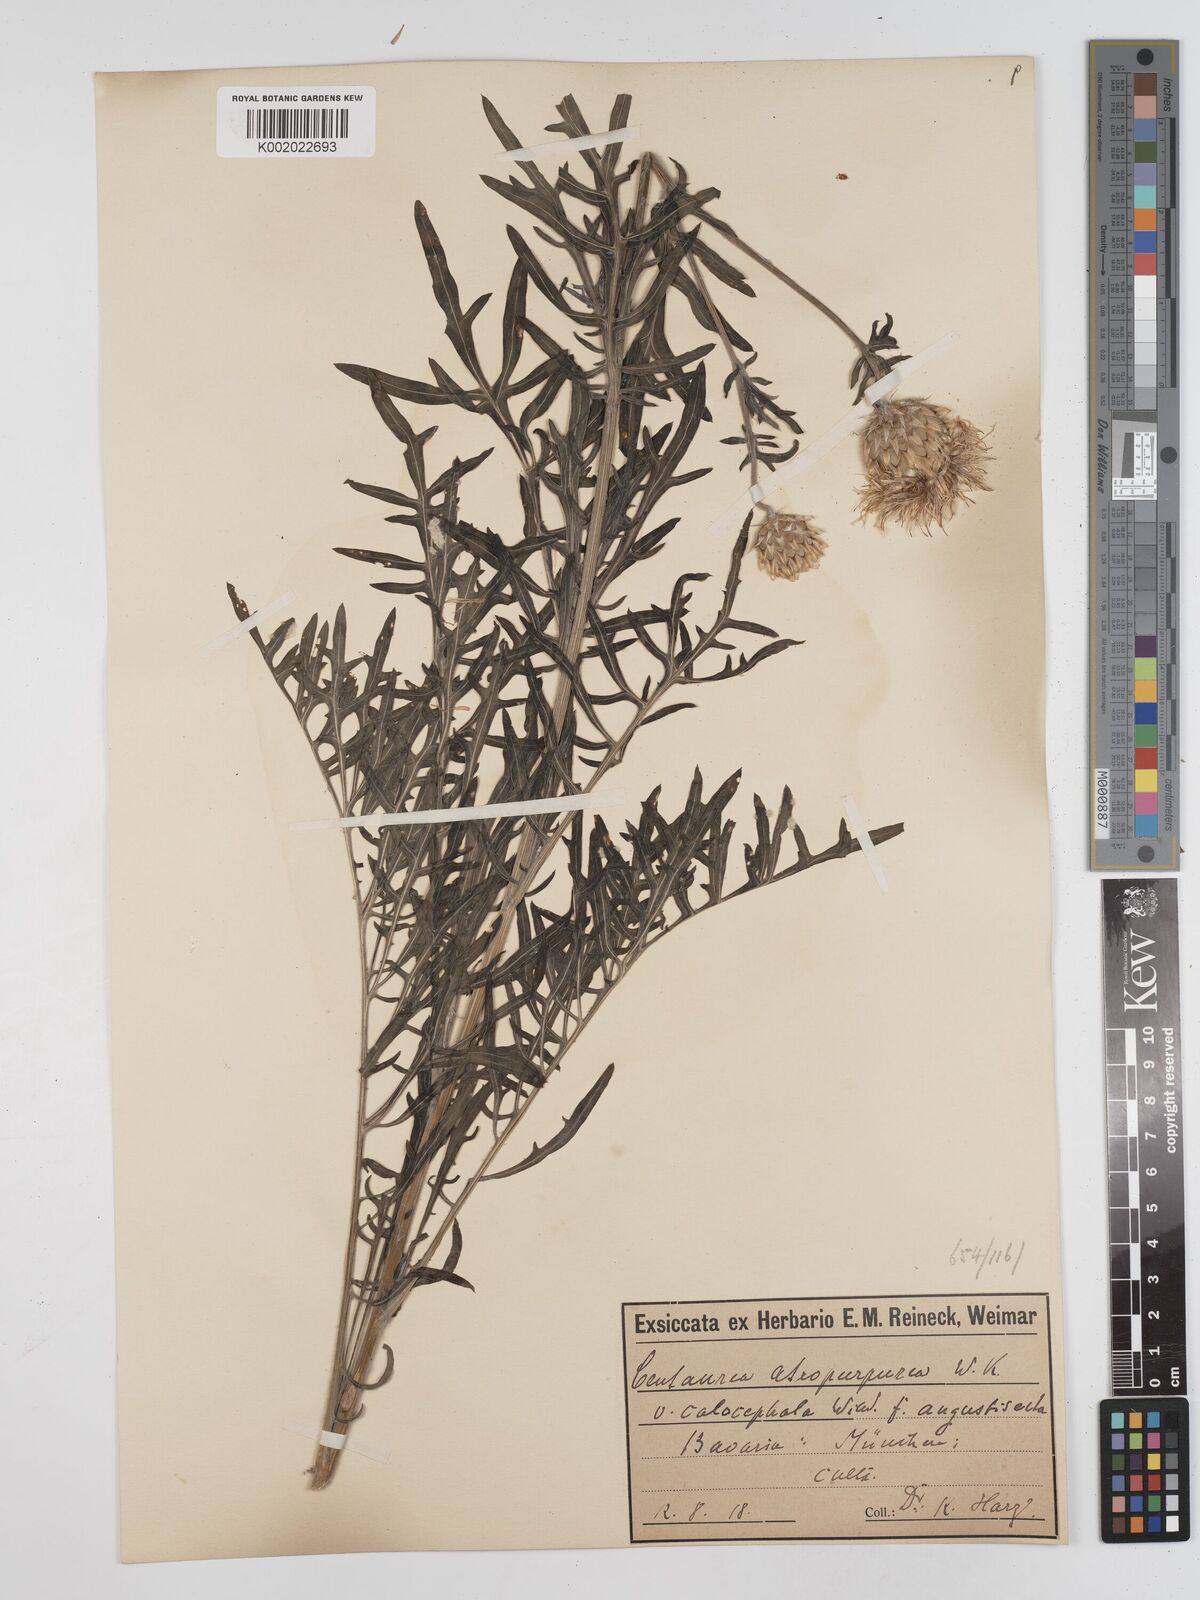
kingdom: Plantae
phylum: Tracheophyta
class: Magnoliopsida
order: Asterales
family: Asteraceae
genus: Centaurea
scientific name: Centaurea calocephala
